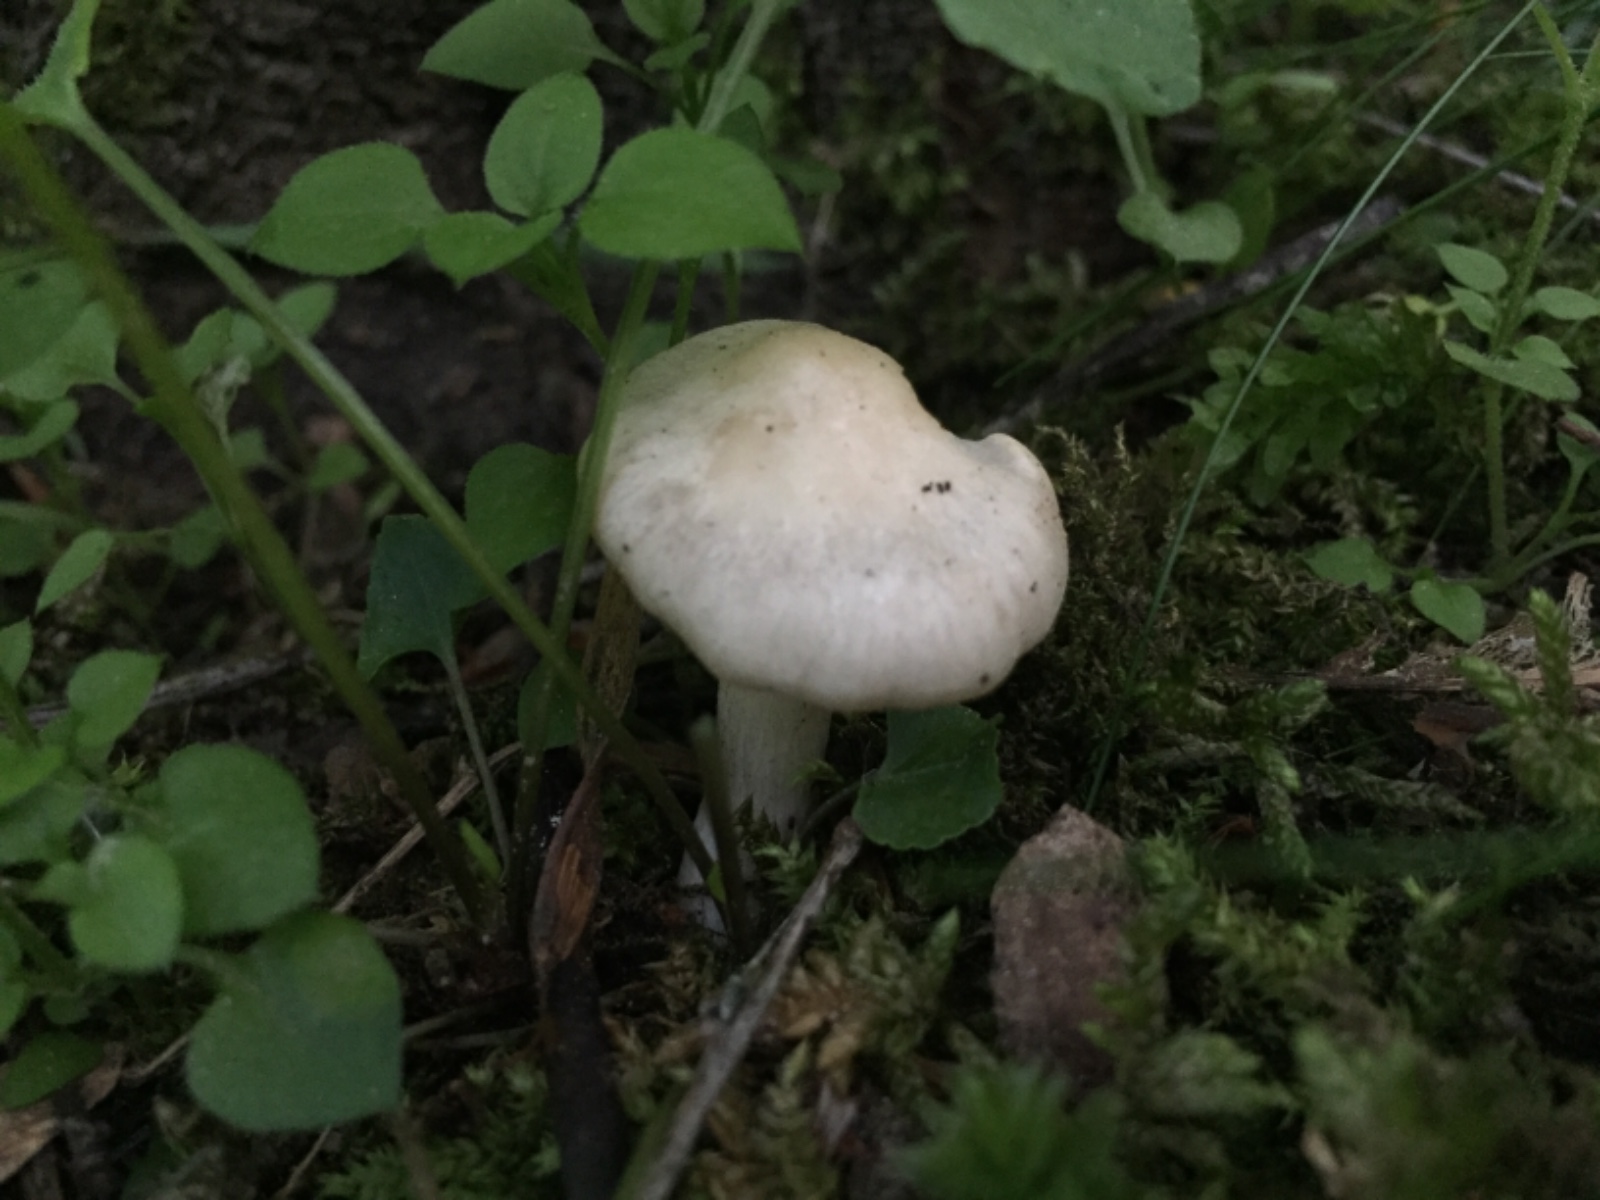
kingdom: Fungi
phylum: Basidiomycota
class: Agaricomycetes
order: Agaricales
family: Entolomataceae
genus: Entoloma
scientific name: Entoloma
